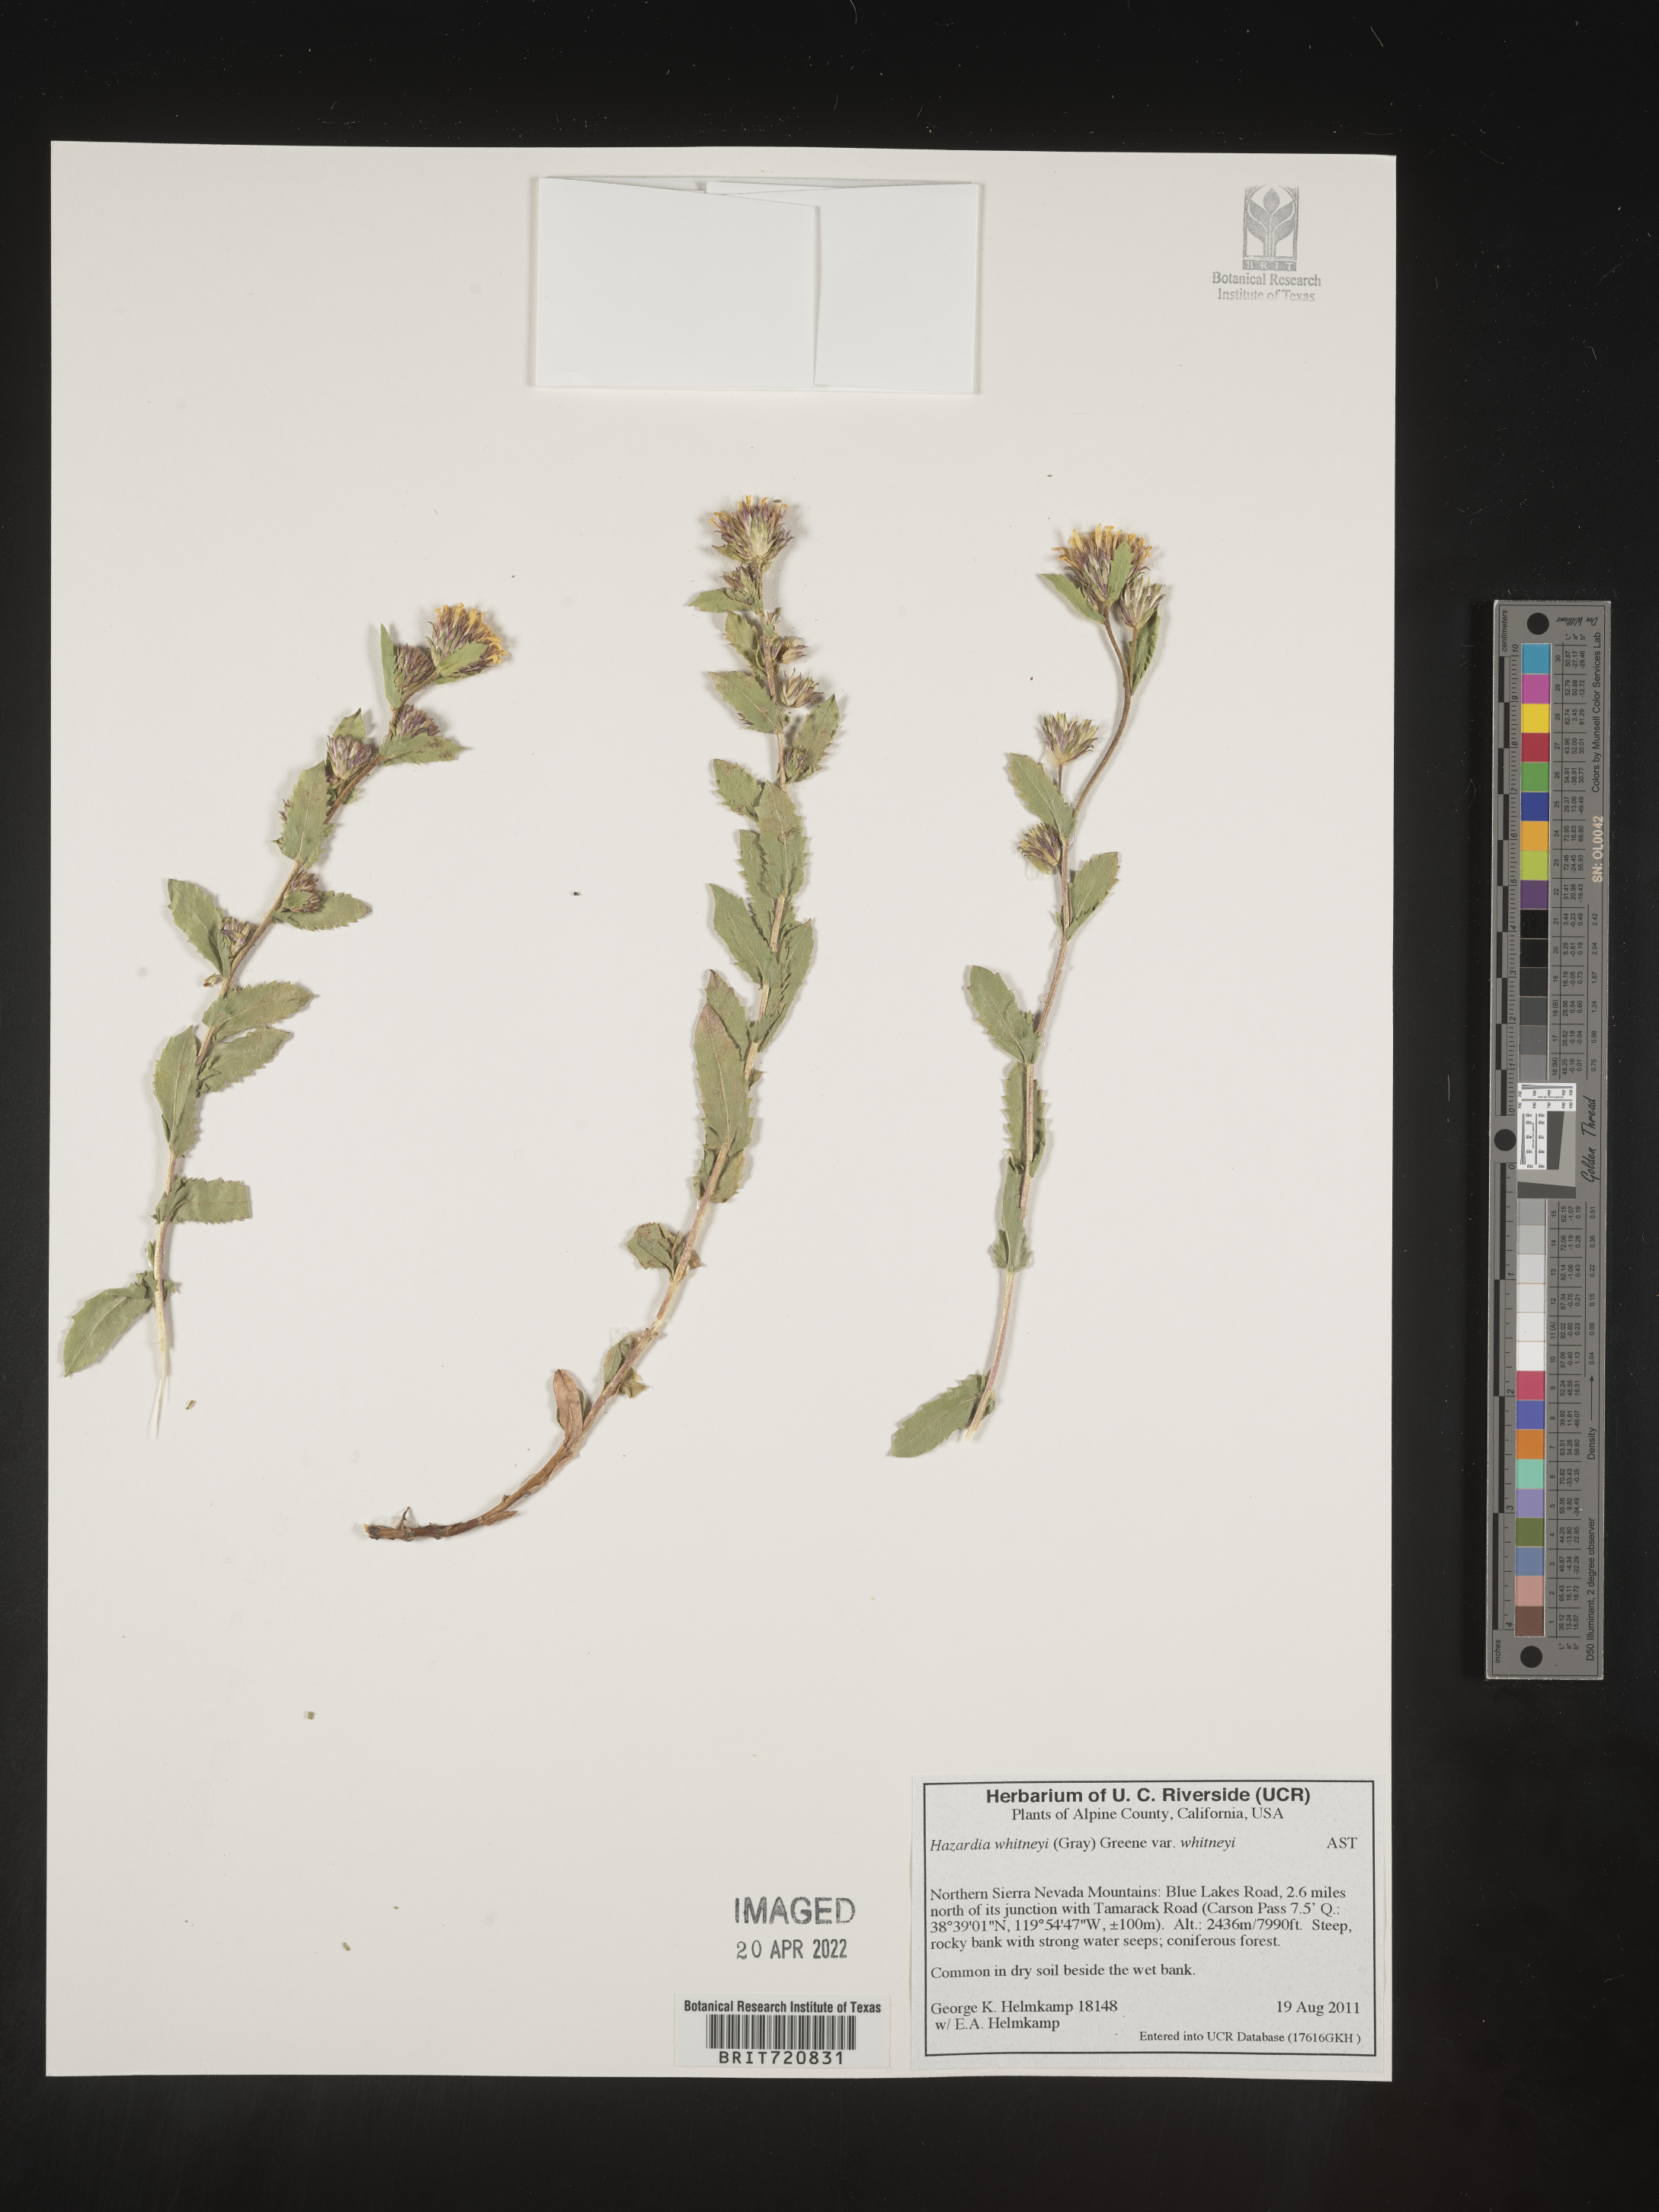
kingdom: Plantae
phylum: Tracheophyta
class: Magnoliopsida
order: Asterales
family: Asteraceae
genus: Hazardia
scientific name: Hazardia
